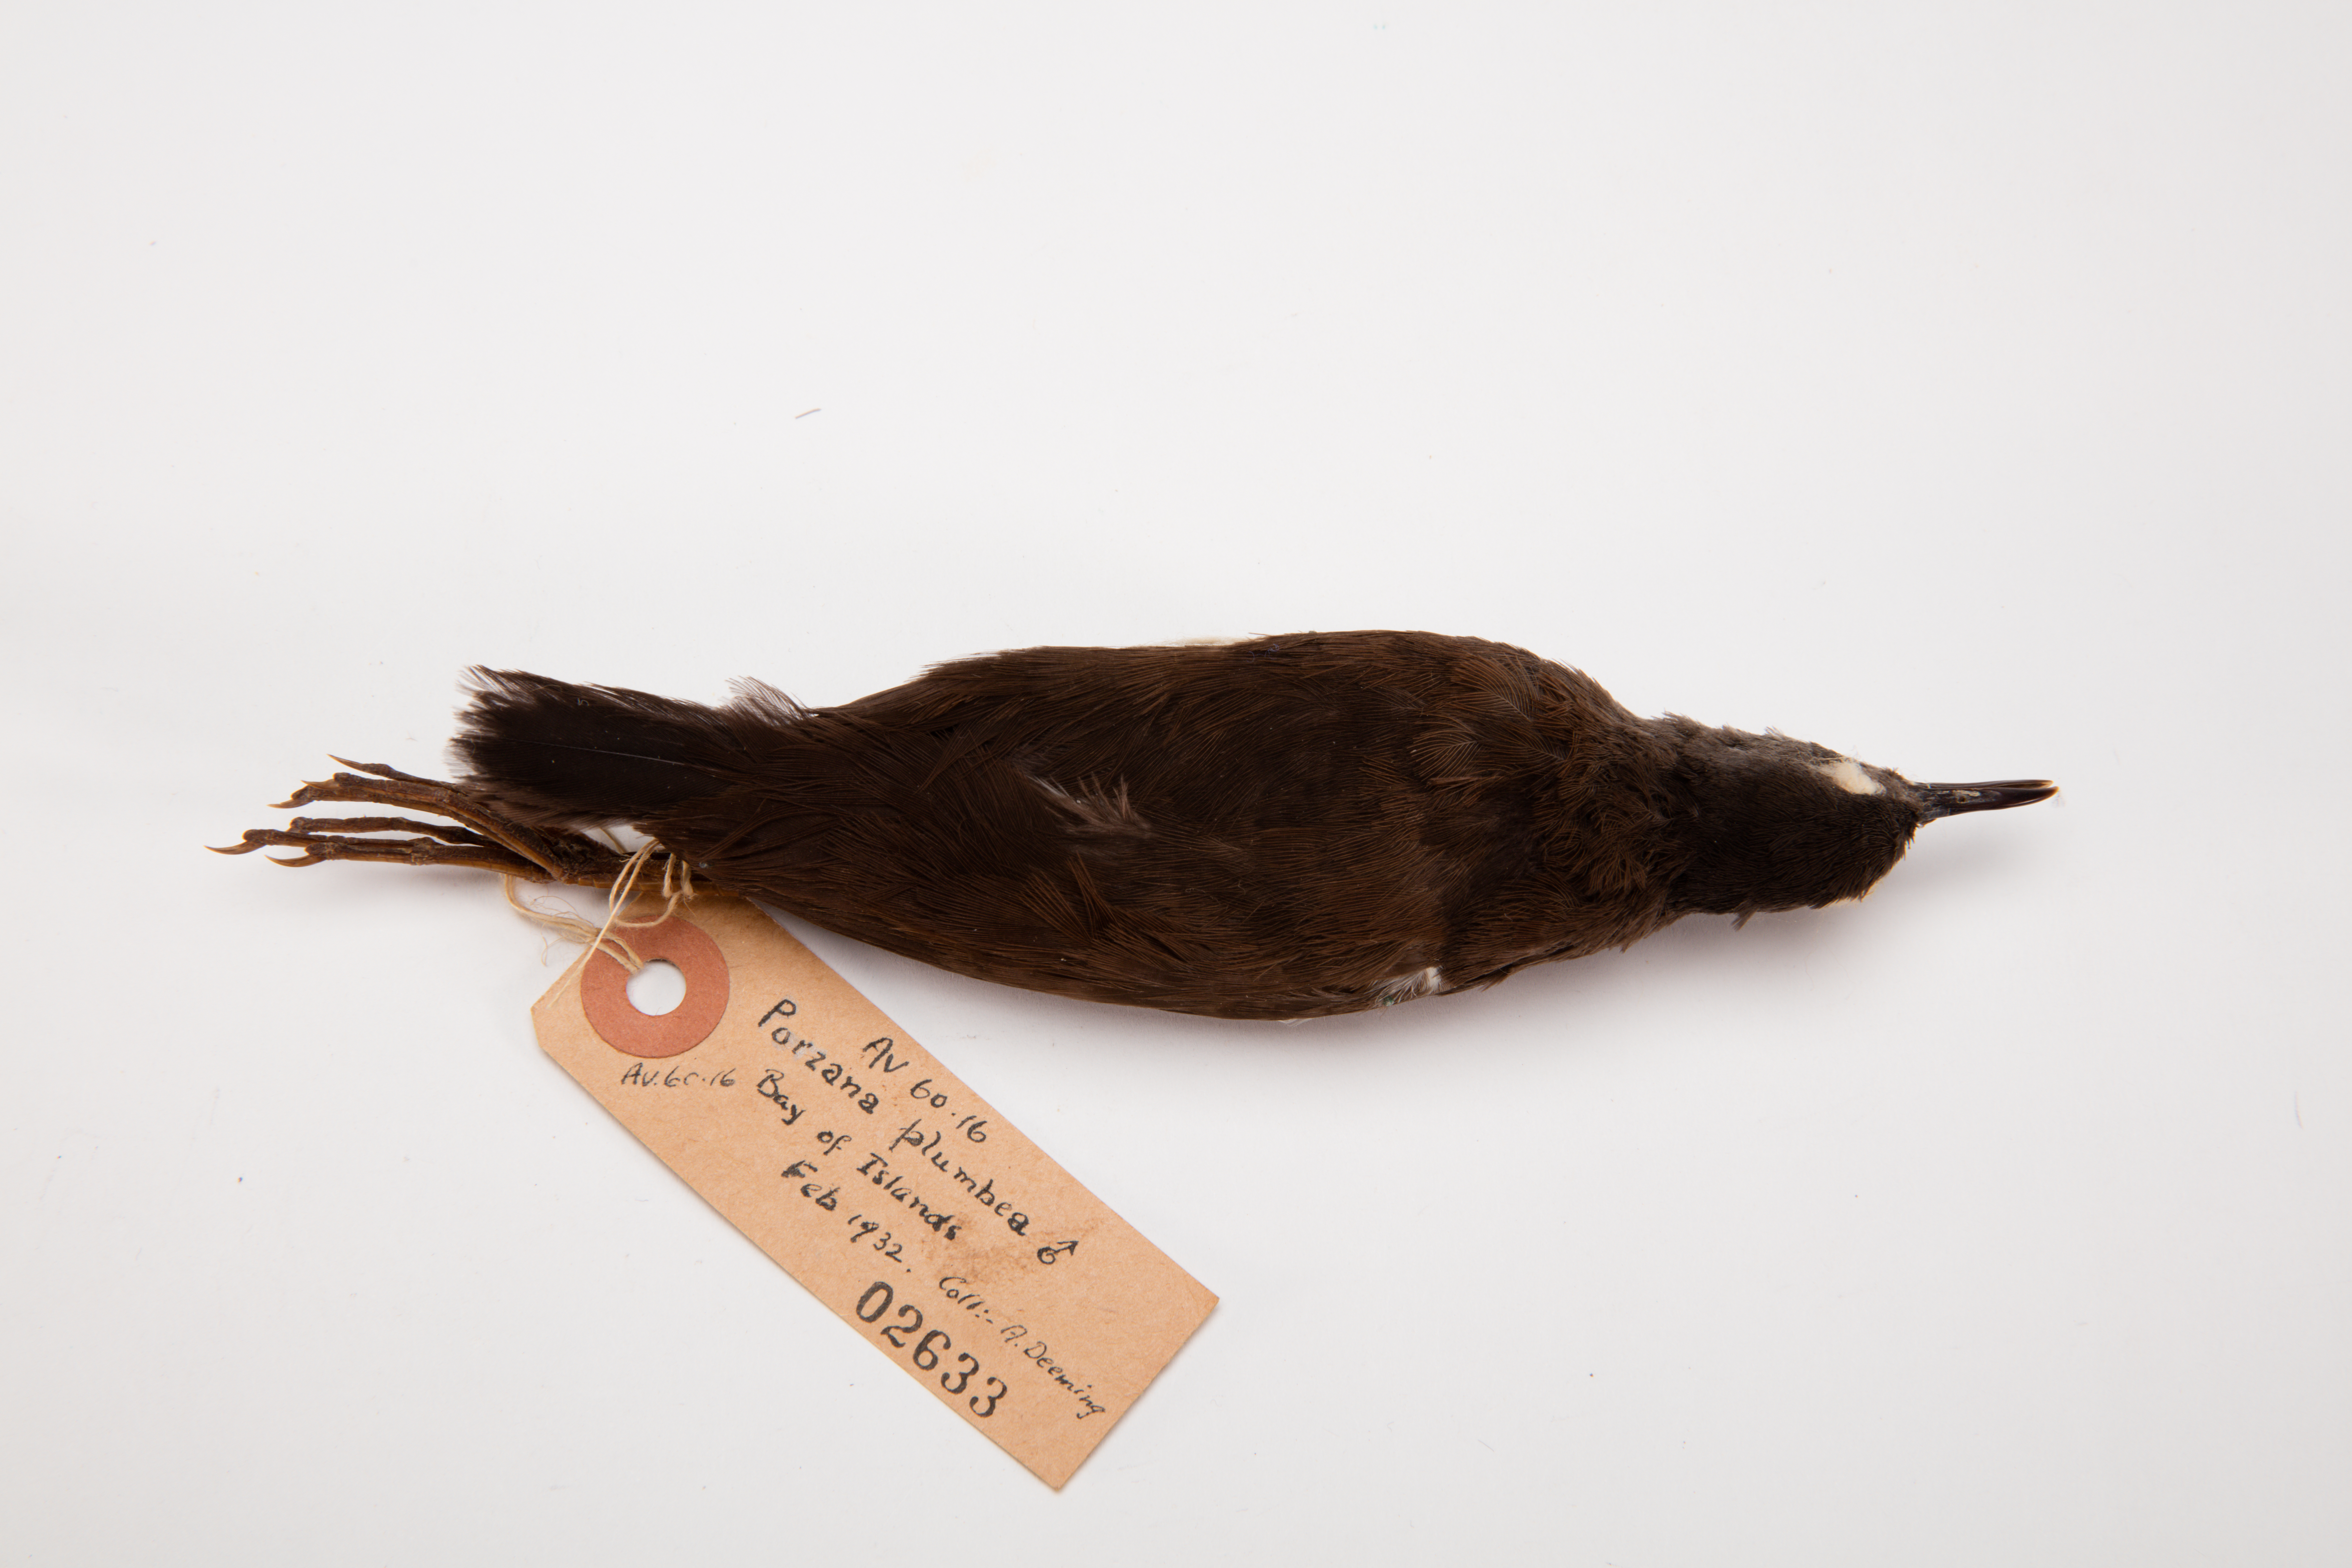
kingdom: Animalia
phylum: Chordata
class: Aves
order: Gruiformes
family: Rallidae
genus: Porzana
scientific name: Porzana tabuensis
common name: Spotless crake
